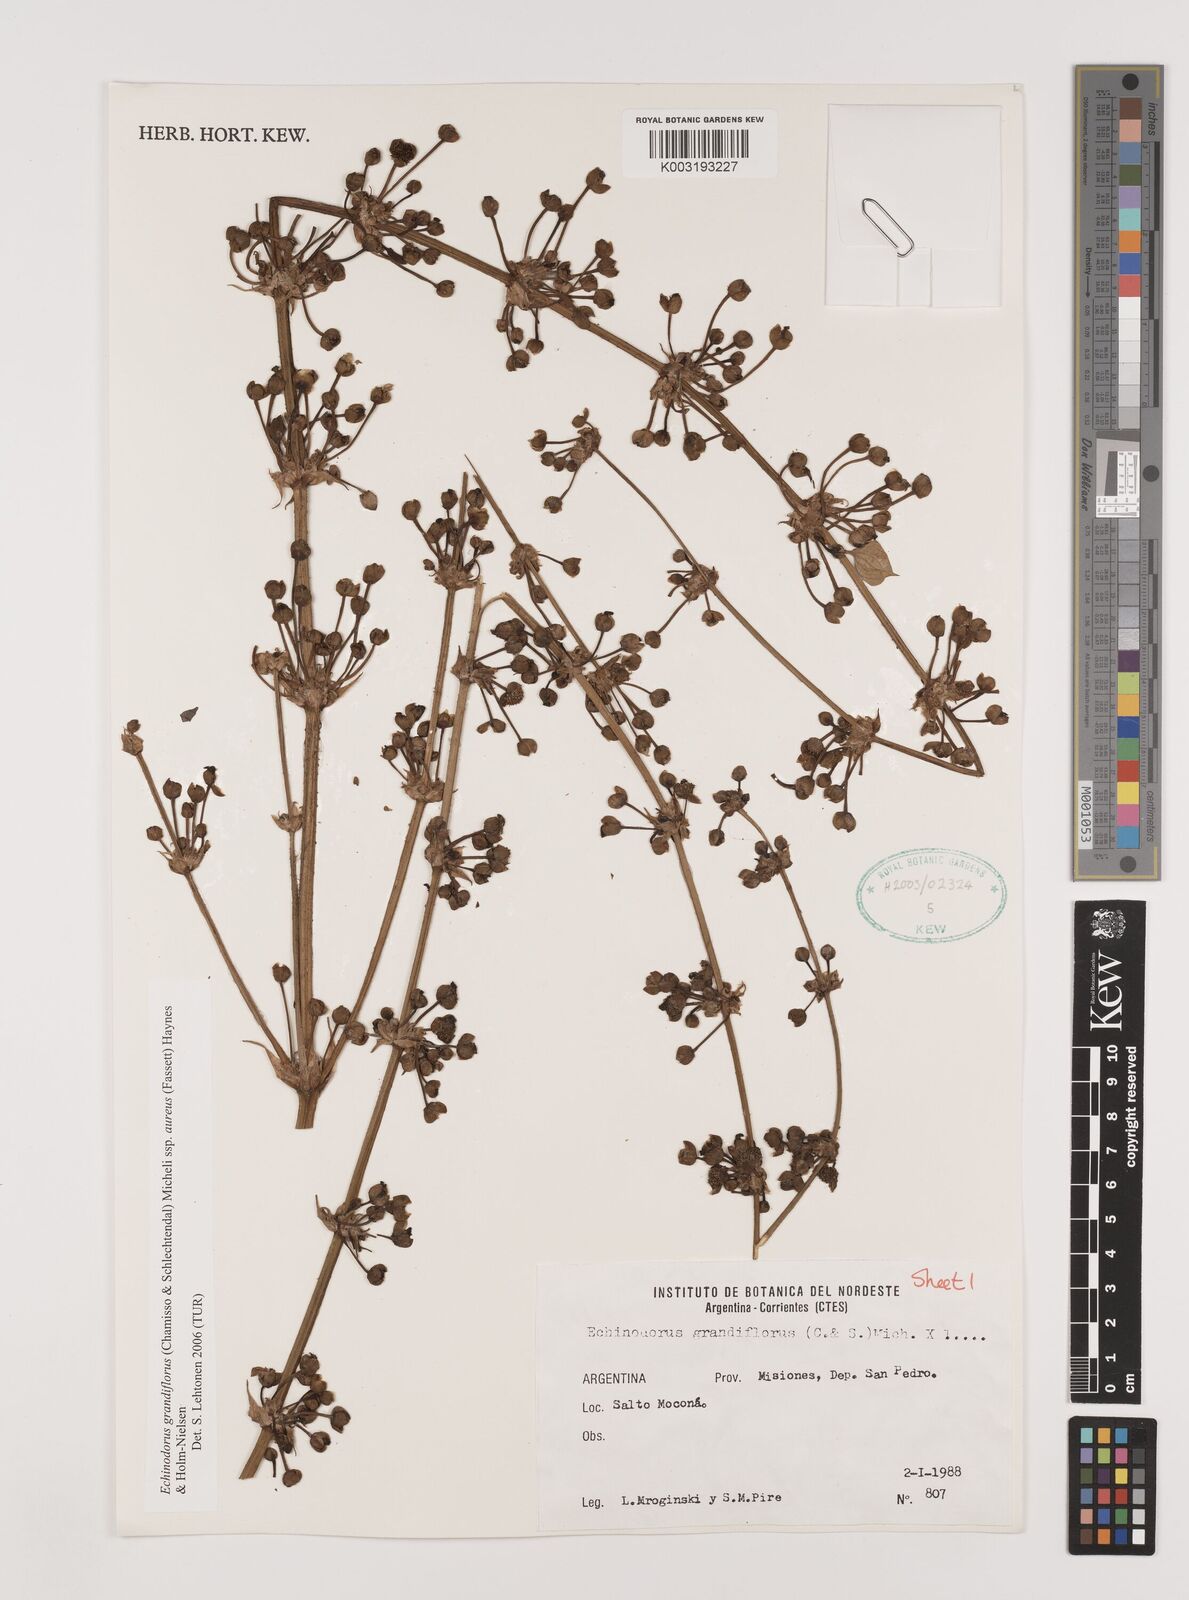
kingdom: Plantae
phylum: Tracheophyta
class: Liliopsida
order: Alismatales
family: Alismataceae
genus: Aquarius
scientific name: Aquarius floribundus
